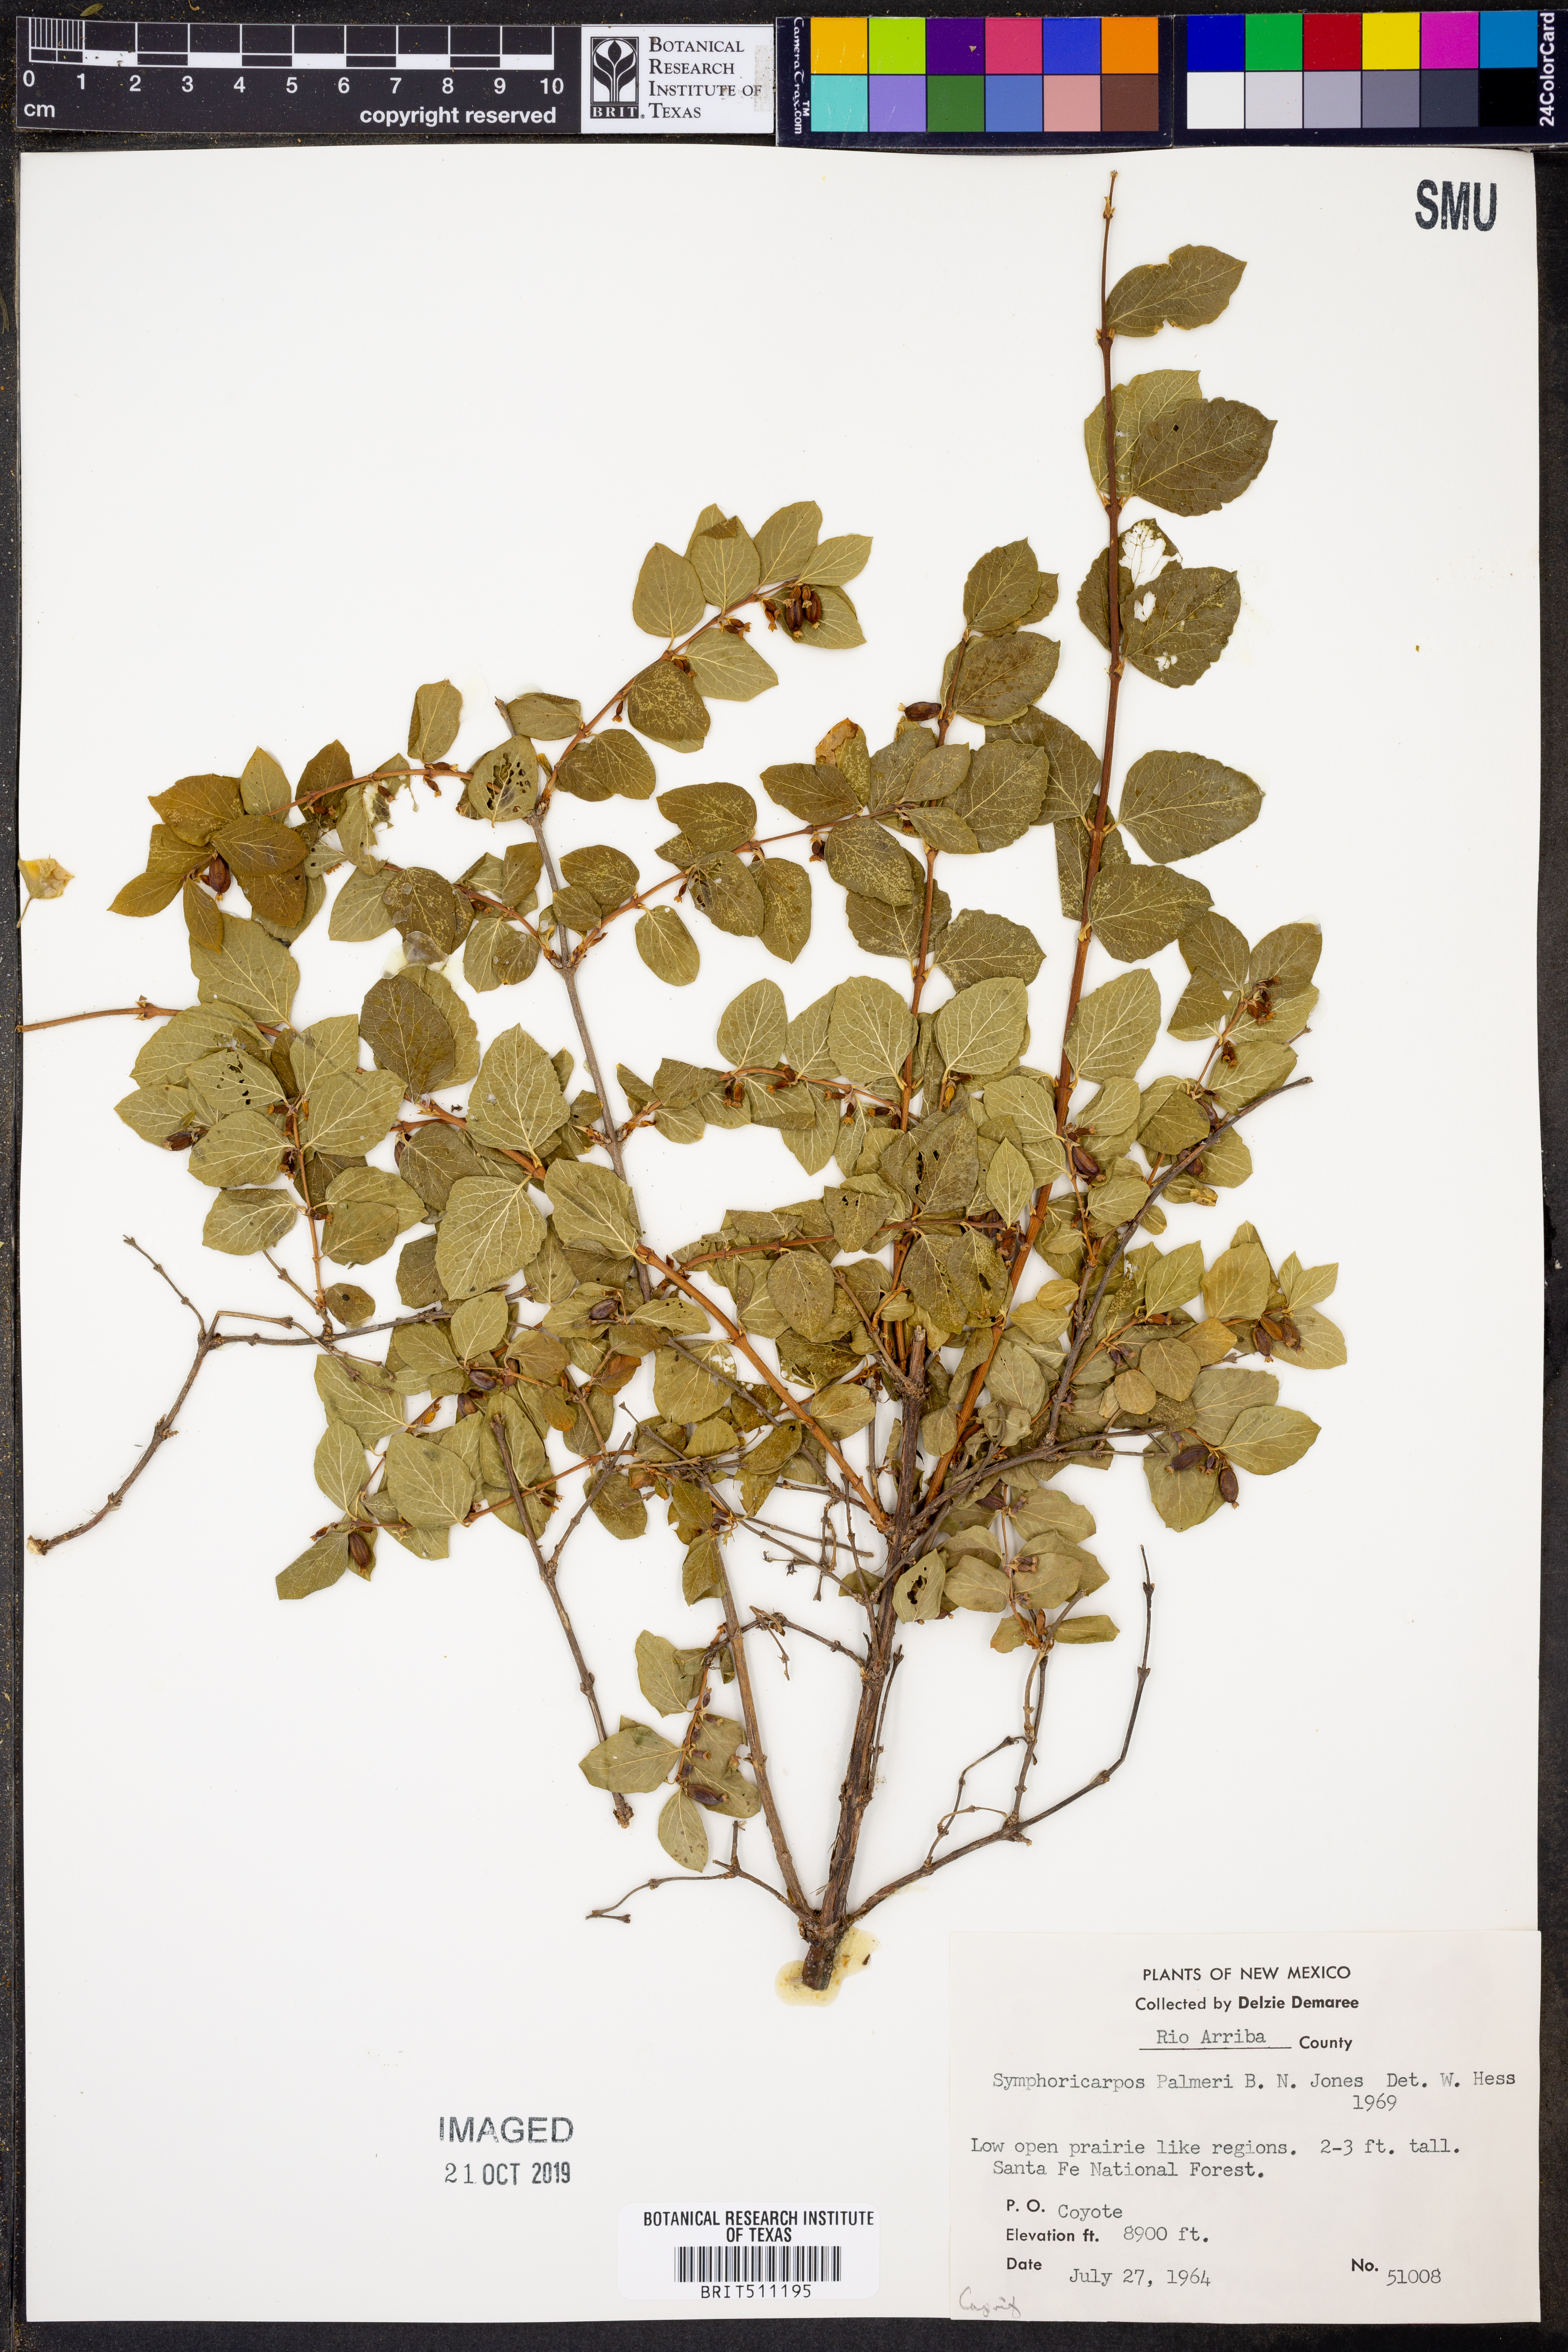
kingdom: Plantae
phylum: Tracheophyta
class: Magnoliopsida
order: Dipsacales
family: Caprifoliaceae
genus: Symphoricarpos
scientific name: Symphoricarpos palmeri
